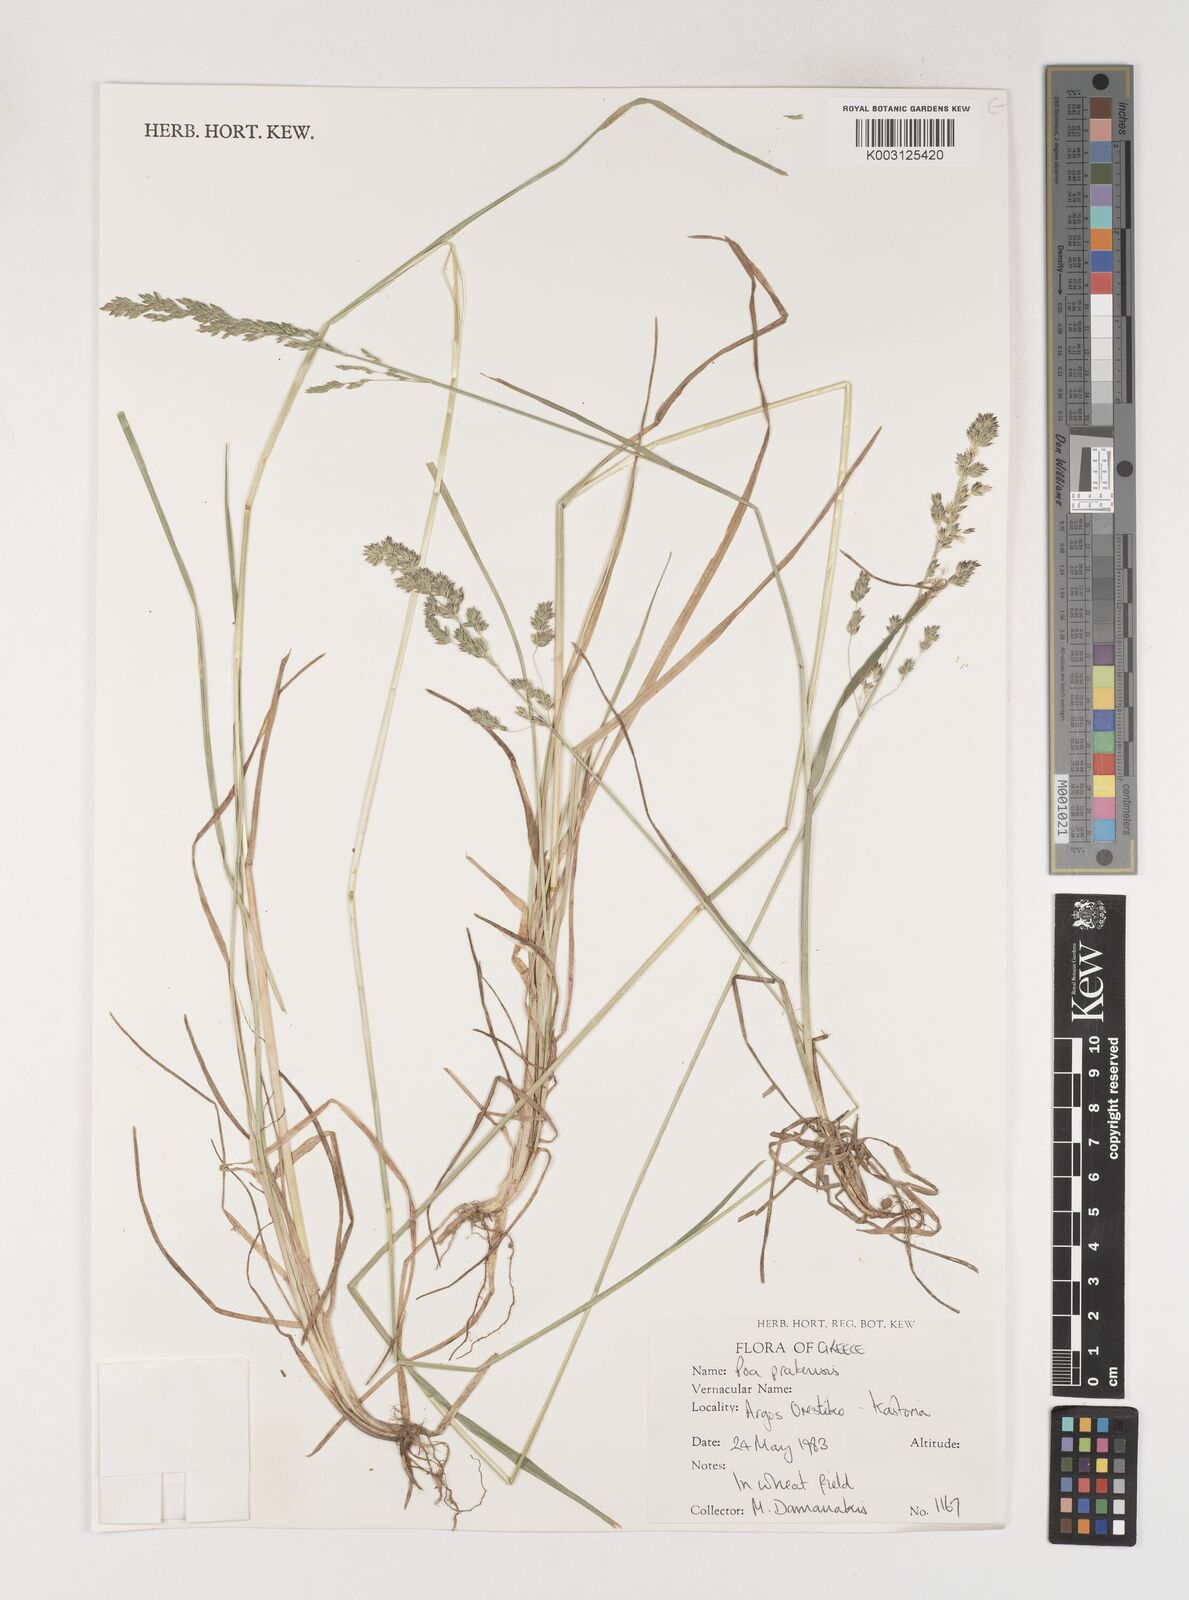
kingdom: Plantae
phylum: Tracheophyta
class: Liliopsida
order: Poales
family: Poaceae
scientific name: Poaceae
